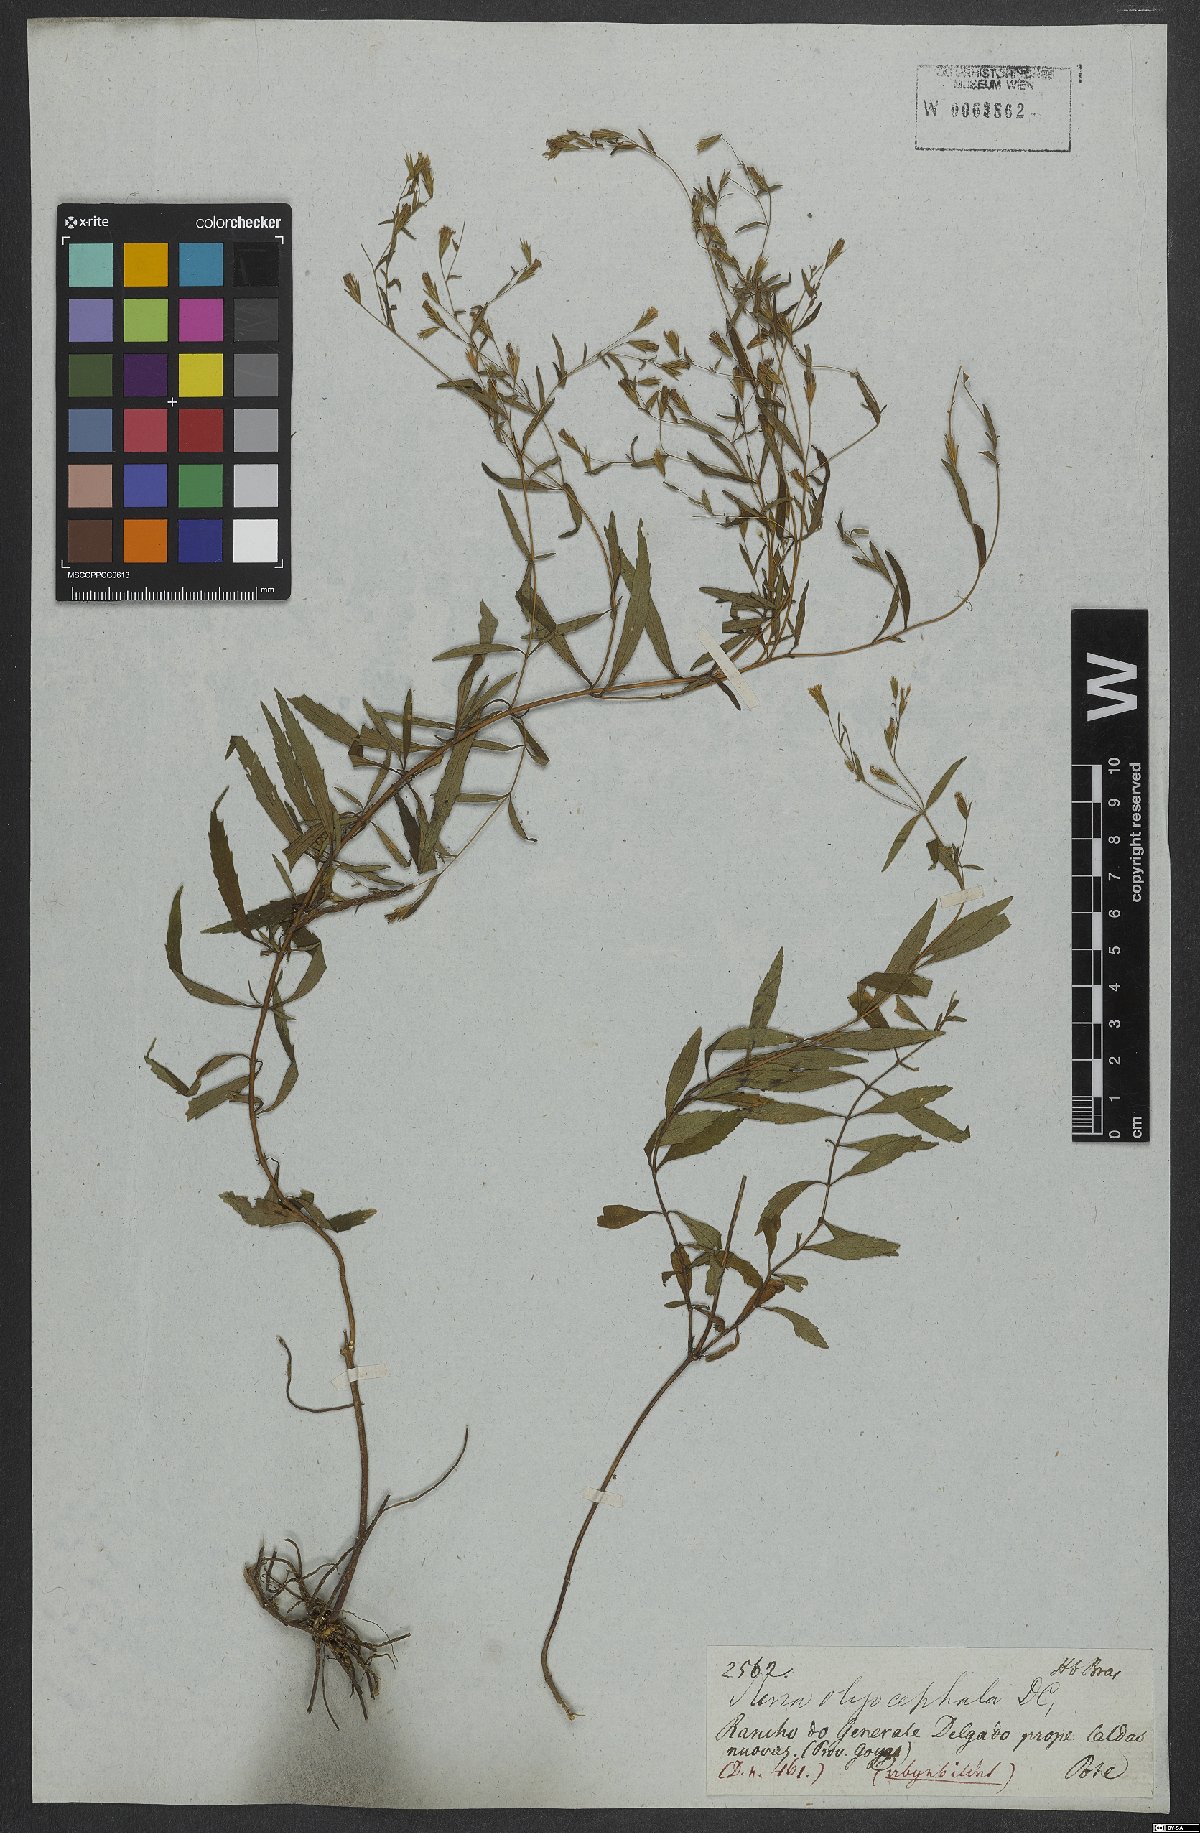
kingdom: Plantae
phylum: Tracheophyta
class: Magnoliopsida
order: Asterales
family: Asteraceae
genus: Stevia
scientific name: Stevia oligocephala
